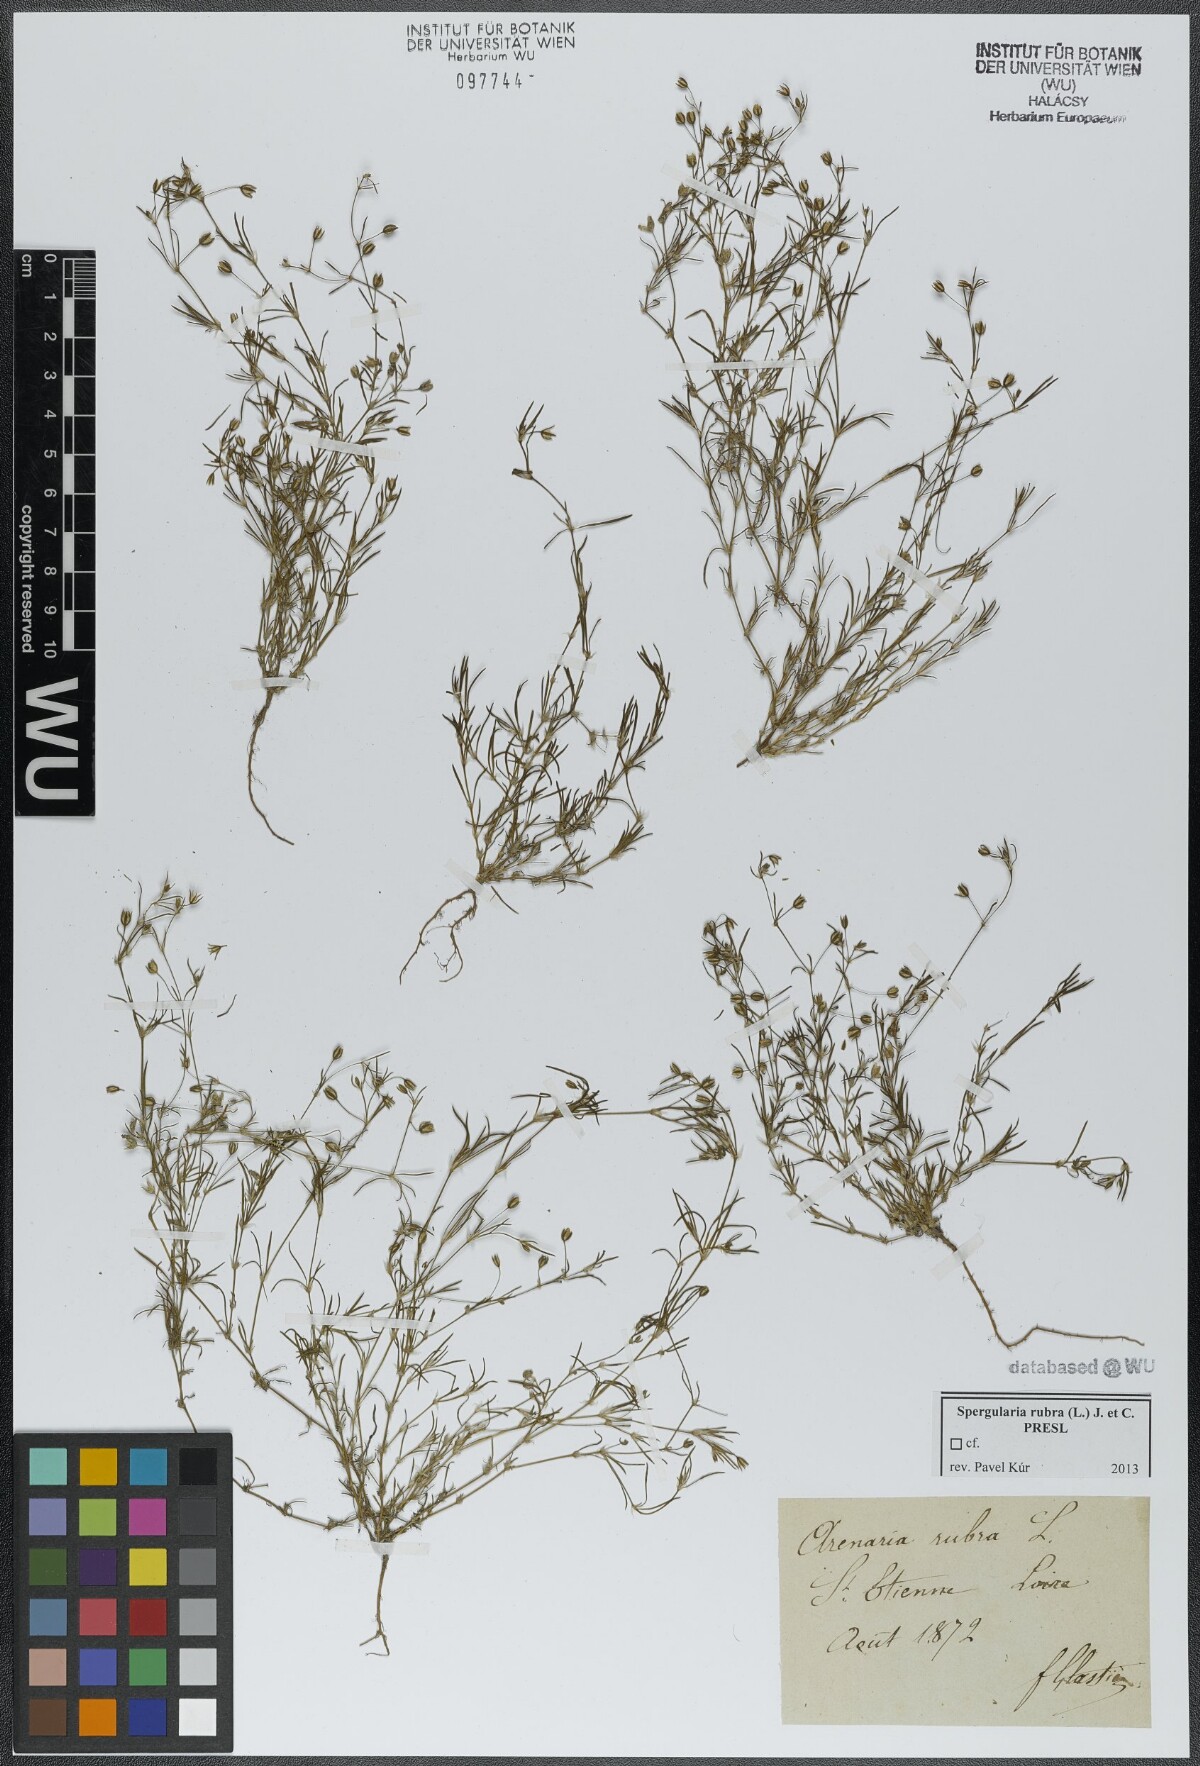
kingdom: Plantae
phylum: Tracheophyta
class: Magnoliopsida
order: Caryophyllales
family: Caryophyllaceae
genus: Spergularia
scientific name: Spergularia rubra
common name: Red sand-spurrey
